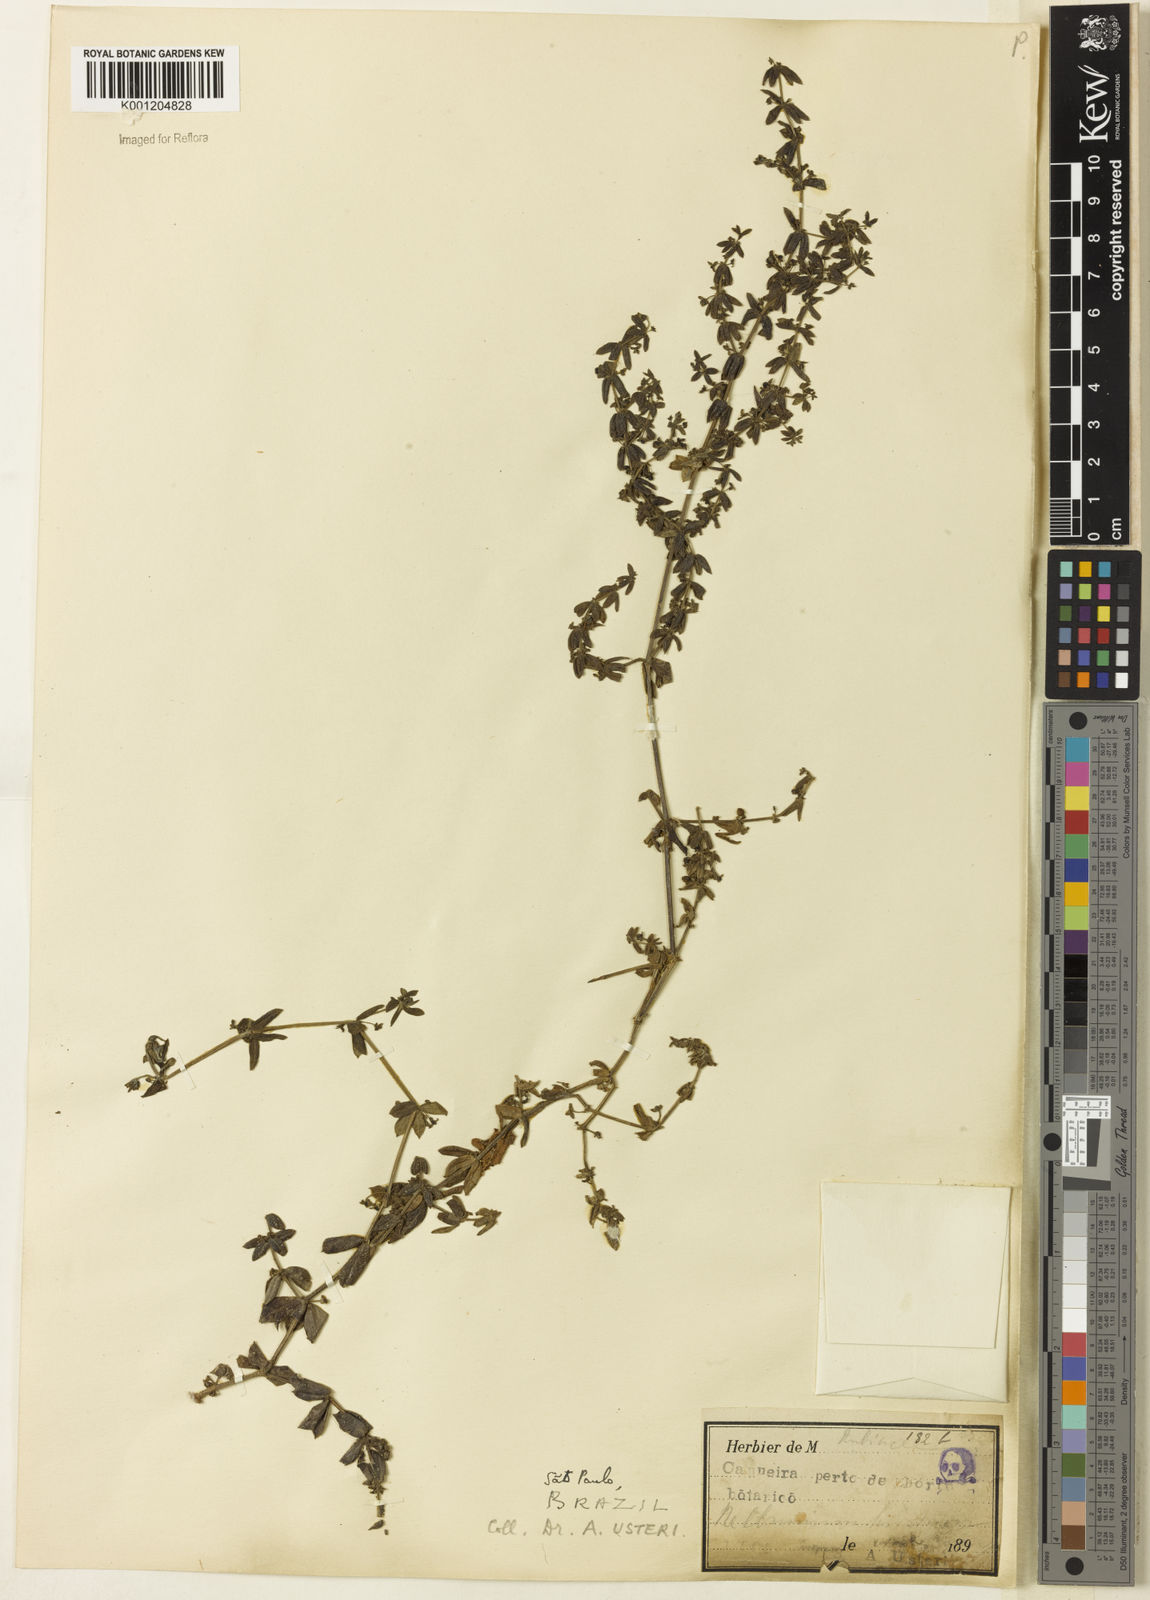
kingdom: Plantae
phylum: Tracheophyta
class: Magnoliopsida
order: Gentianales
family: Rubiaceae
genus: Galium
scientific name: Galium hypocarpium
